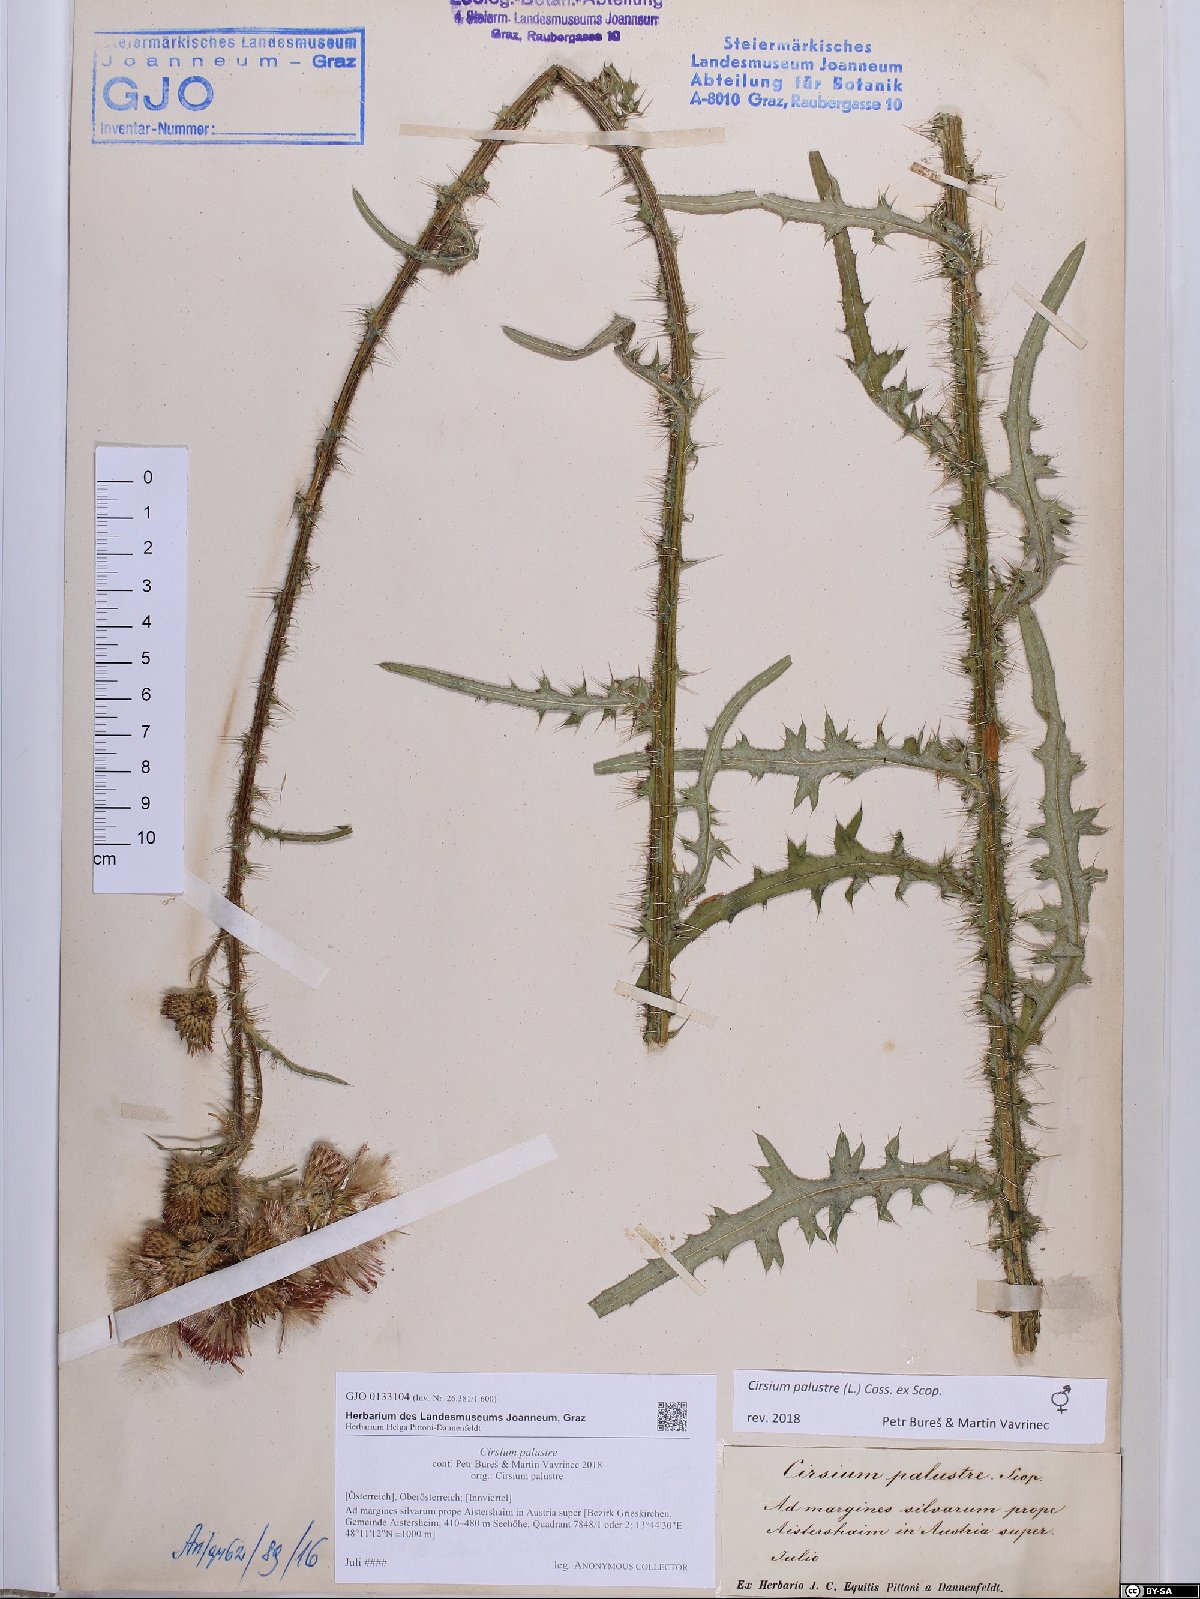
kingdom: Plantae
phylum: Tracheophyta
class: Magnoliopsida
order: Asterales
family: Asteraceae
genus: Cirsium
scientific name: Cirsium palustre
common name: Marsh thistle
